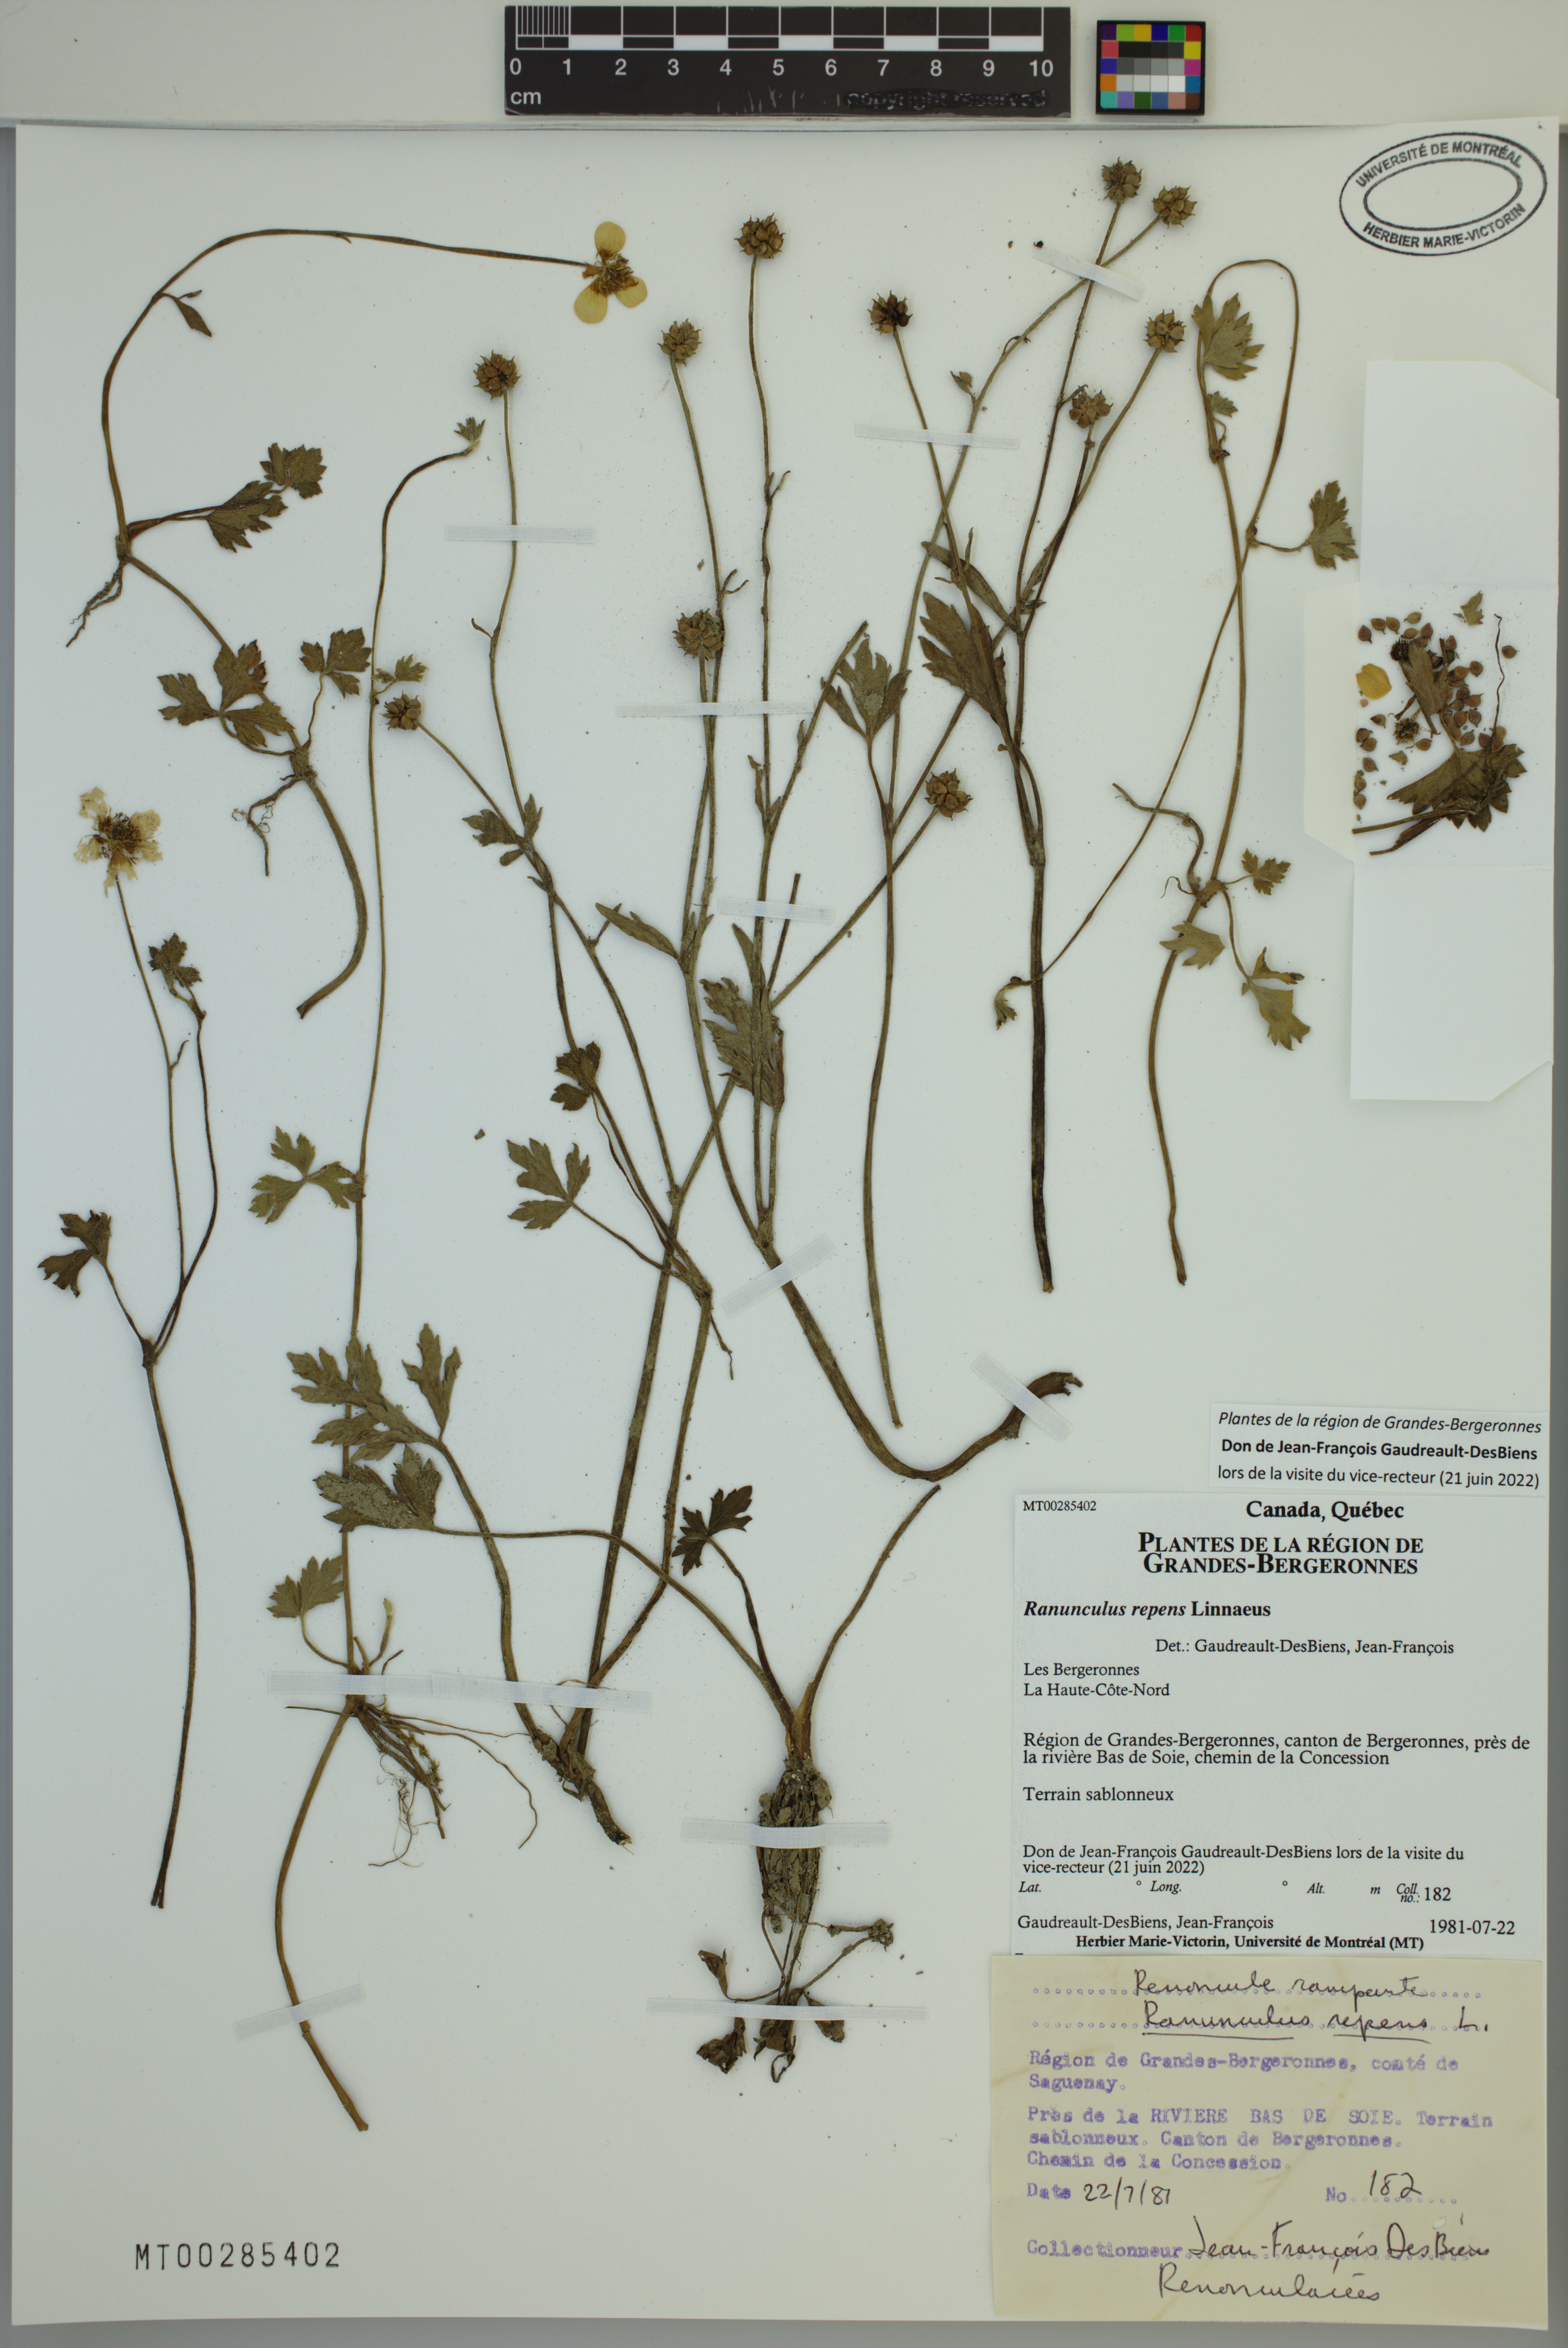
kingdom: Plantae
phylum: Tracheophyta
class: Magnoliopsida
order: Ranunculales
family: Ranunculaceae
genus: Ranunculus
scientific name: Ranunculus repens
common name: Creeping buttercup
